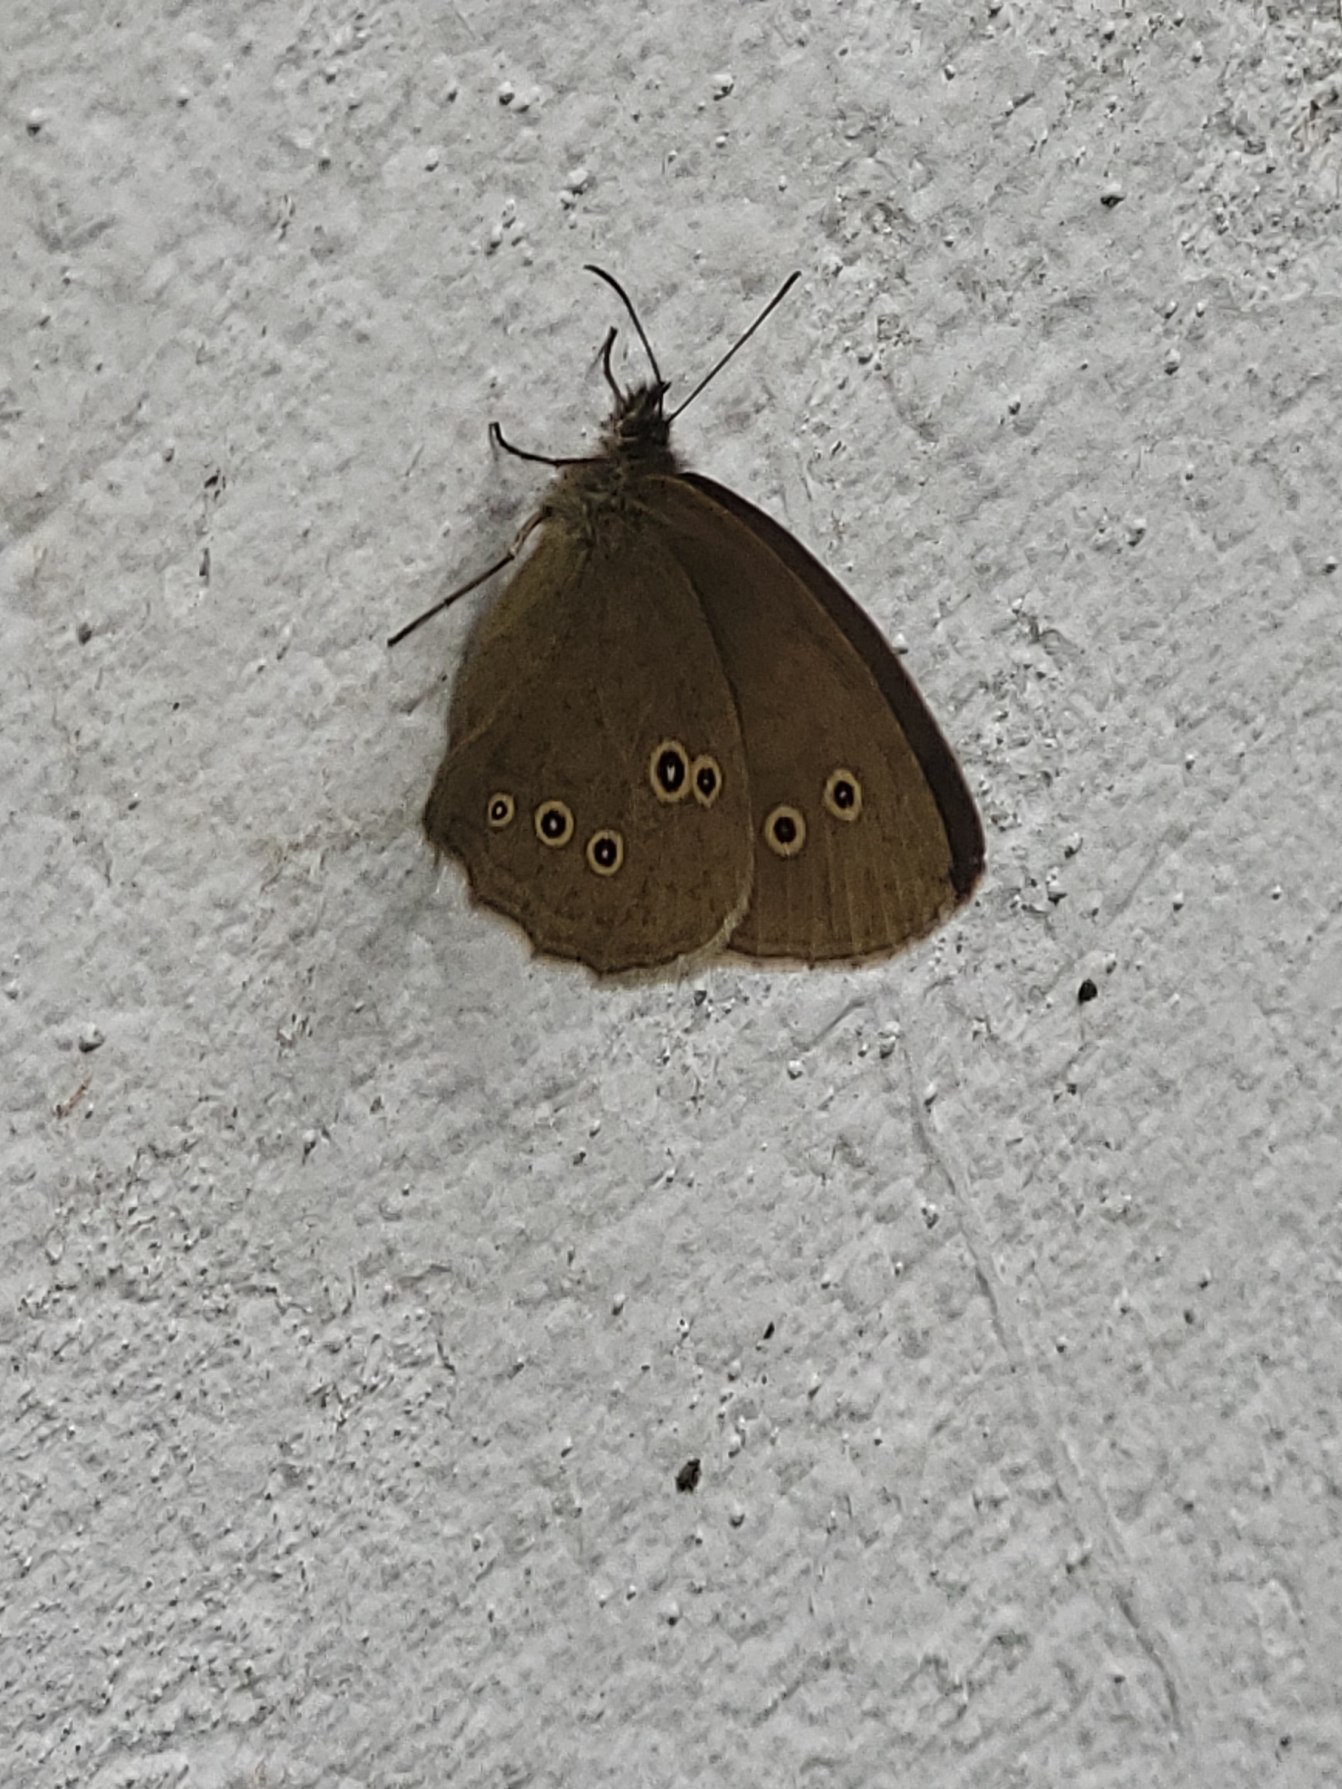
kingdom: Animalia
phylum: Arthropoda
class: Insecta
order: Lepidoptera
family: Nymphalidae
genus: Aphantopus
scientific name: Aphantopus hyperantus
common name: Engrandøje
